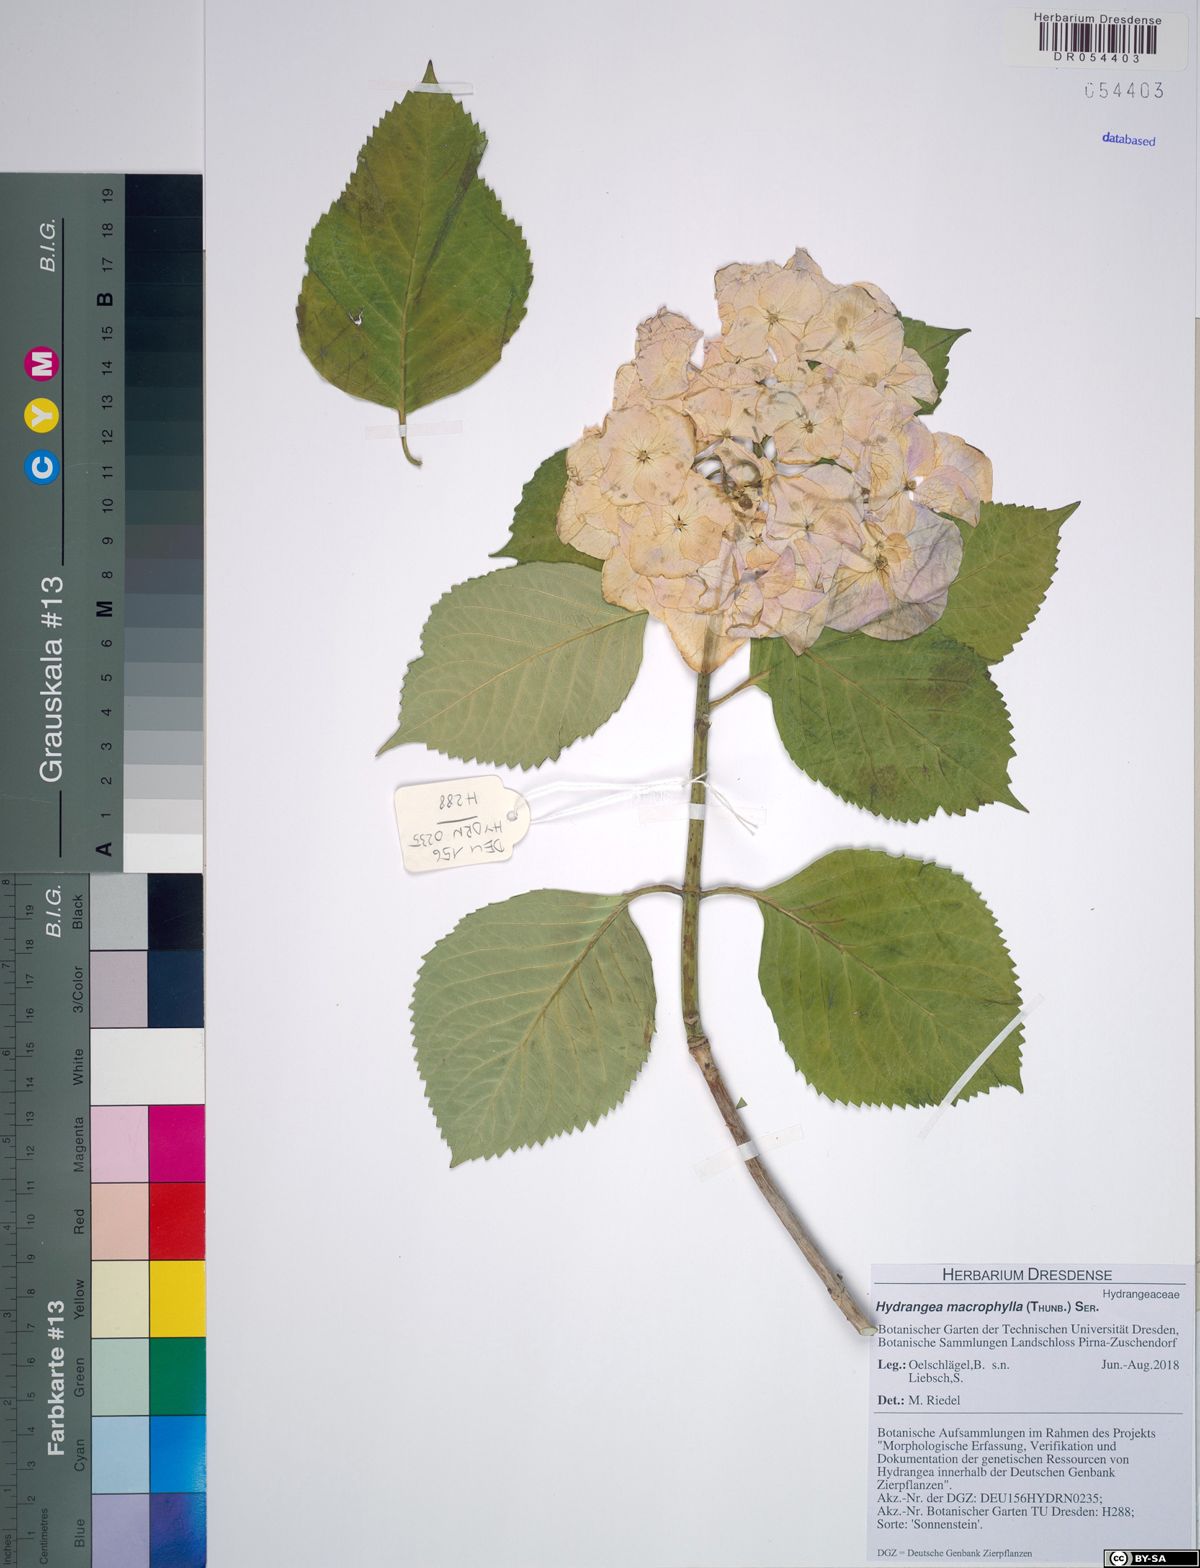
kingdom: Plantae
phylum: Tracheophyta
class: Magnoliopsida
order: Cornales
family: Hydrangeaceae
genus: Hydrangea
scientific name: Hydrangea macrophylla
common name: Hydrangea
